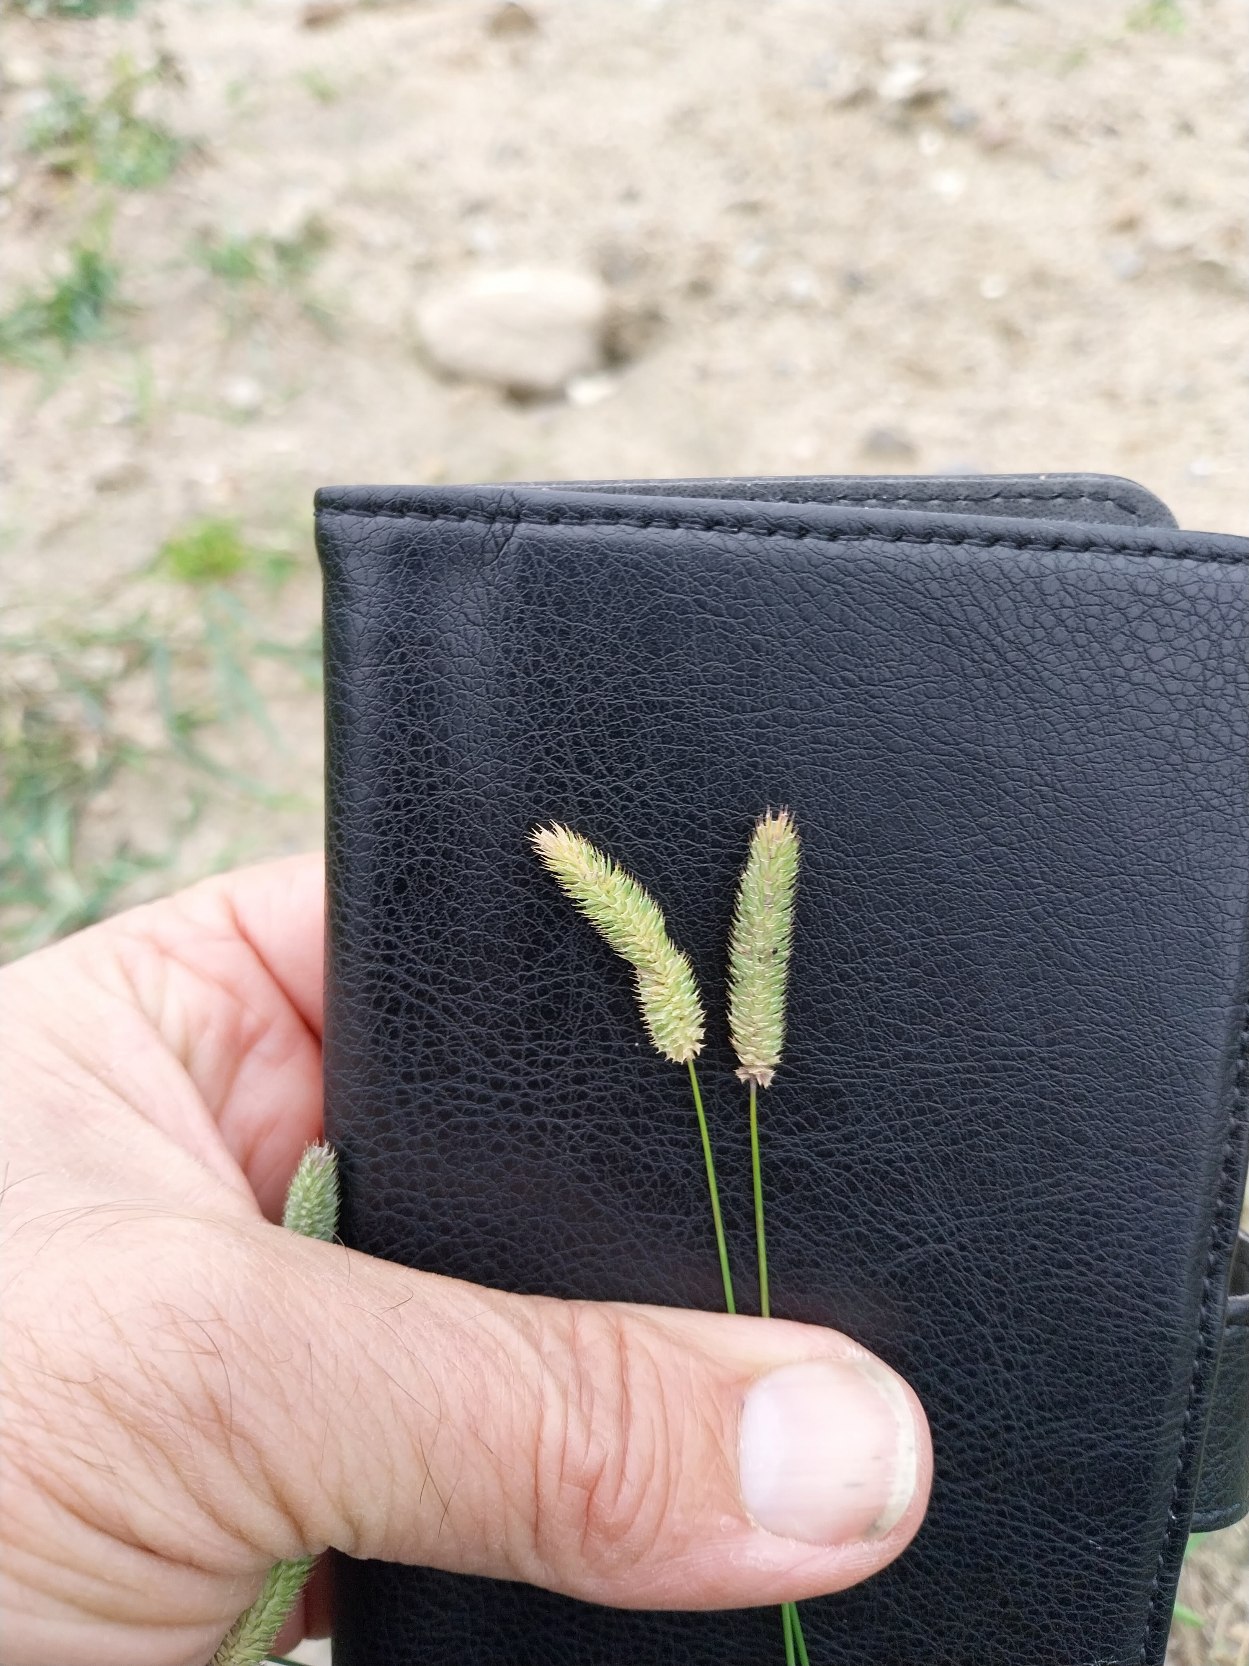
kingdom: Plantae
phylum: Tracheophyta
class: Liliopsida
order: Poales
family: Poaceae
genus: Phleum
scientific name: Phleum pratense
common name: Eng-rottehale
